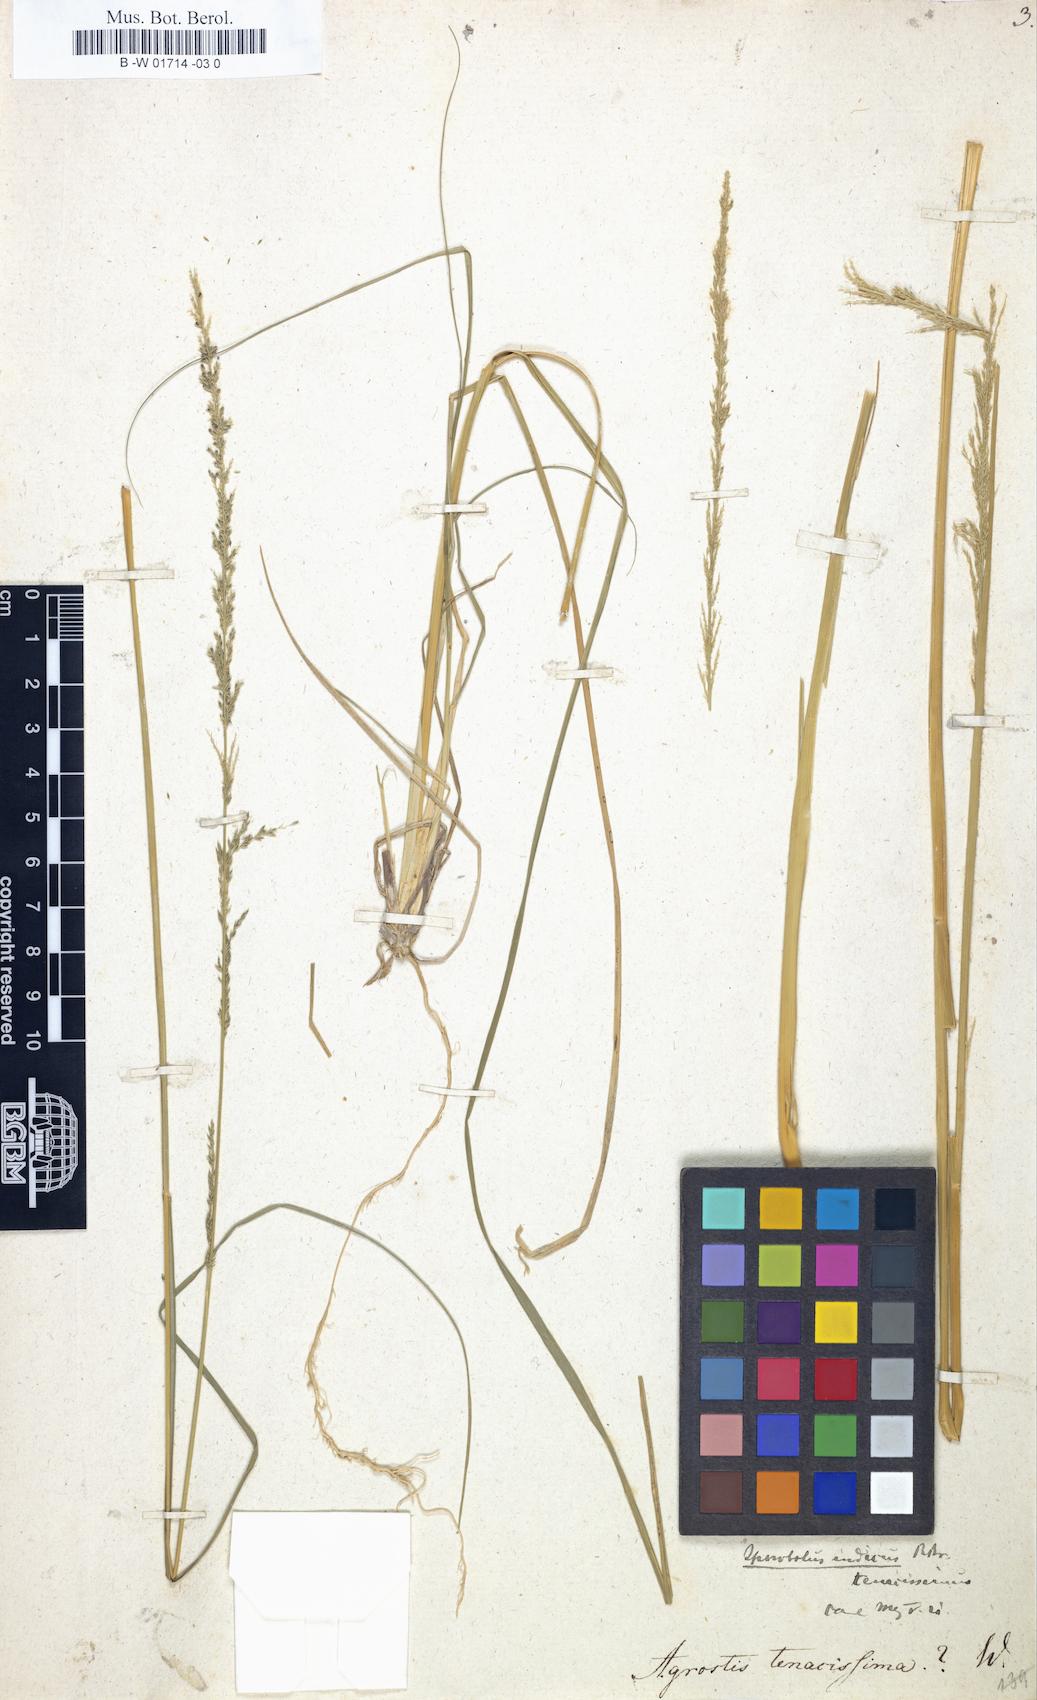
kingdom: Plantae
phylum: Tracheophyta
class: Liliopsida
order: Poales
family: Poaceae
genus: Sporobolus
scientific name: Sporobolus indicus
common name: Smut grass
